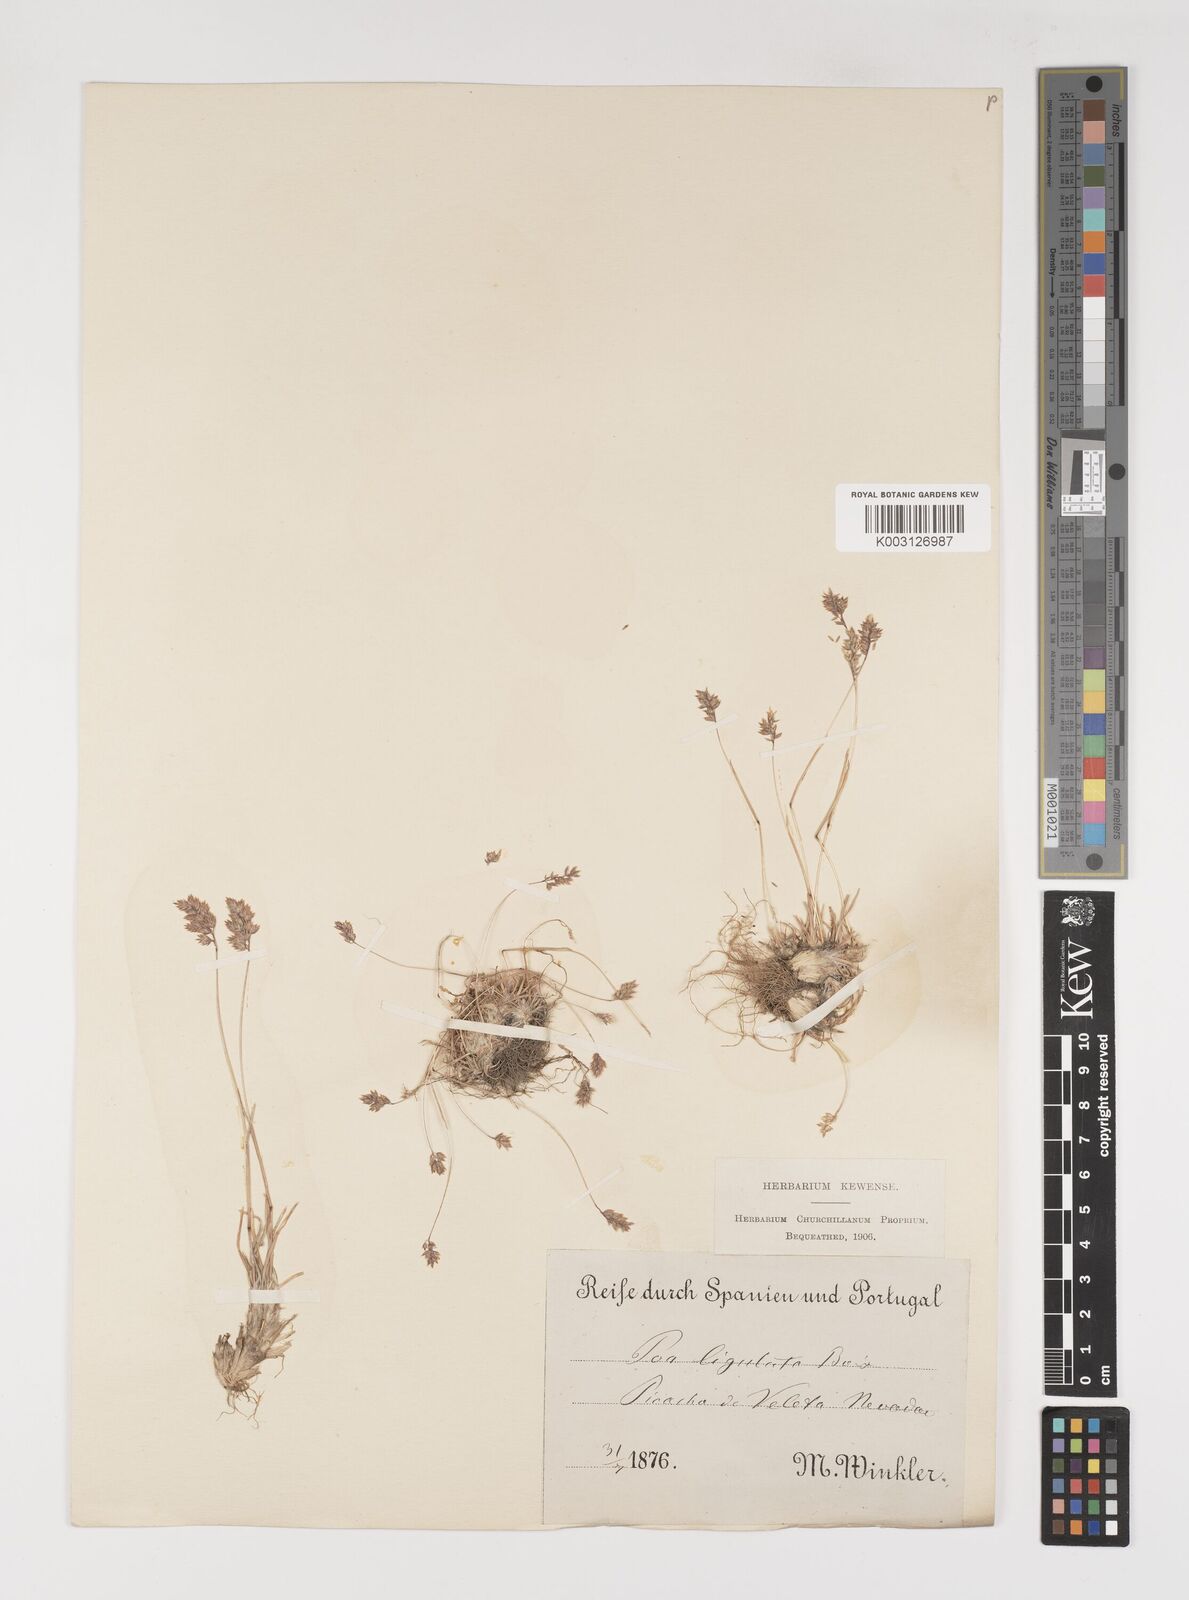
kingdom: Plantae
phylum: Tracheophyta
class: Liliopsida
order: Poales
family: Poaceae
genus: Poa
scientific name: Poa ligulata
